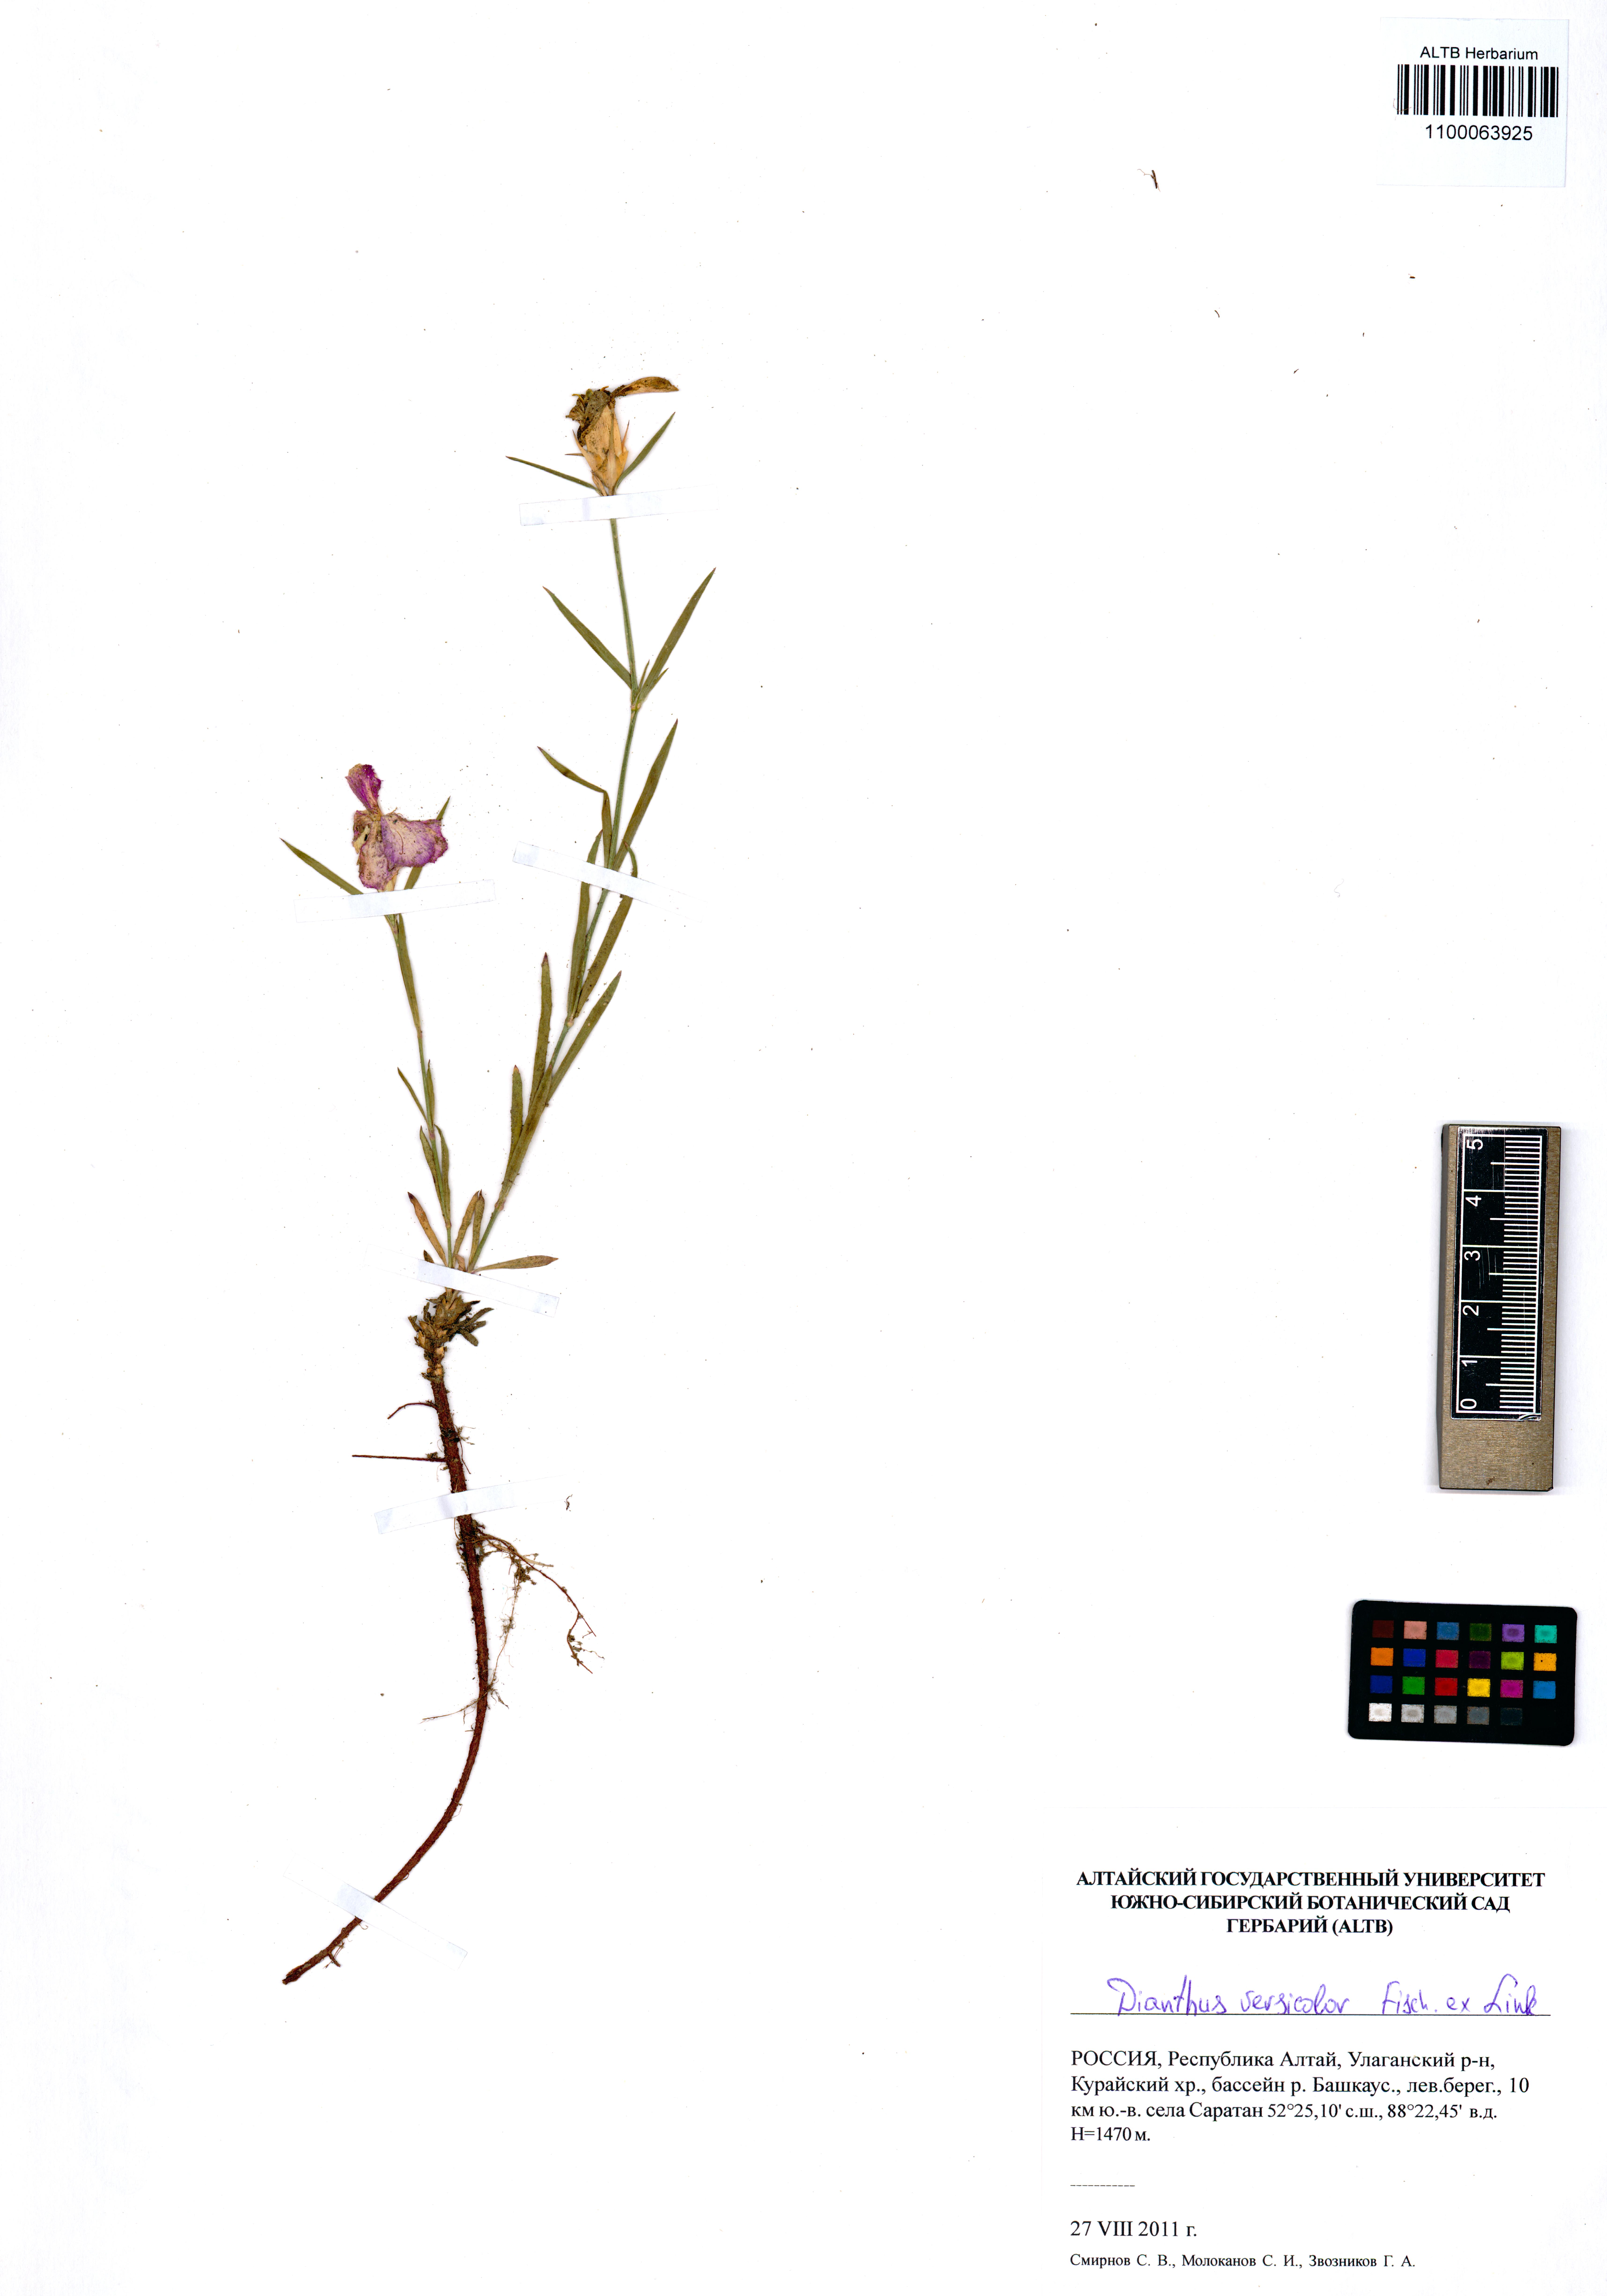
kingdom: Plantae
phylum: Tracheophyta
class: Magnoliopsida
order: Caryophyllales
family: Caryophyllaceae
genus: Dianthus
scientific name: Dianthus chinensis
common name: Rainbow pink
